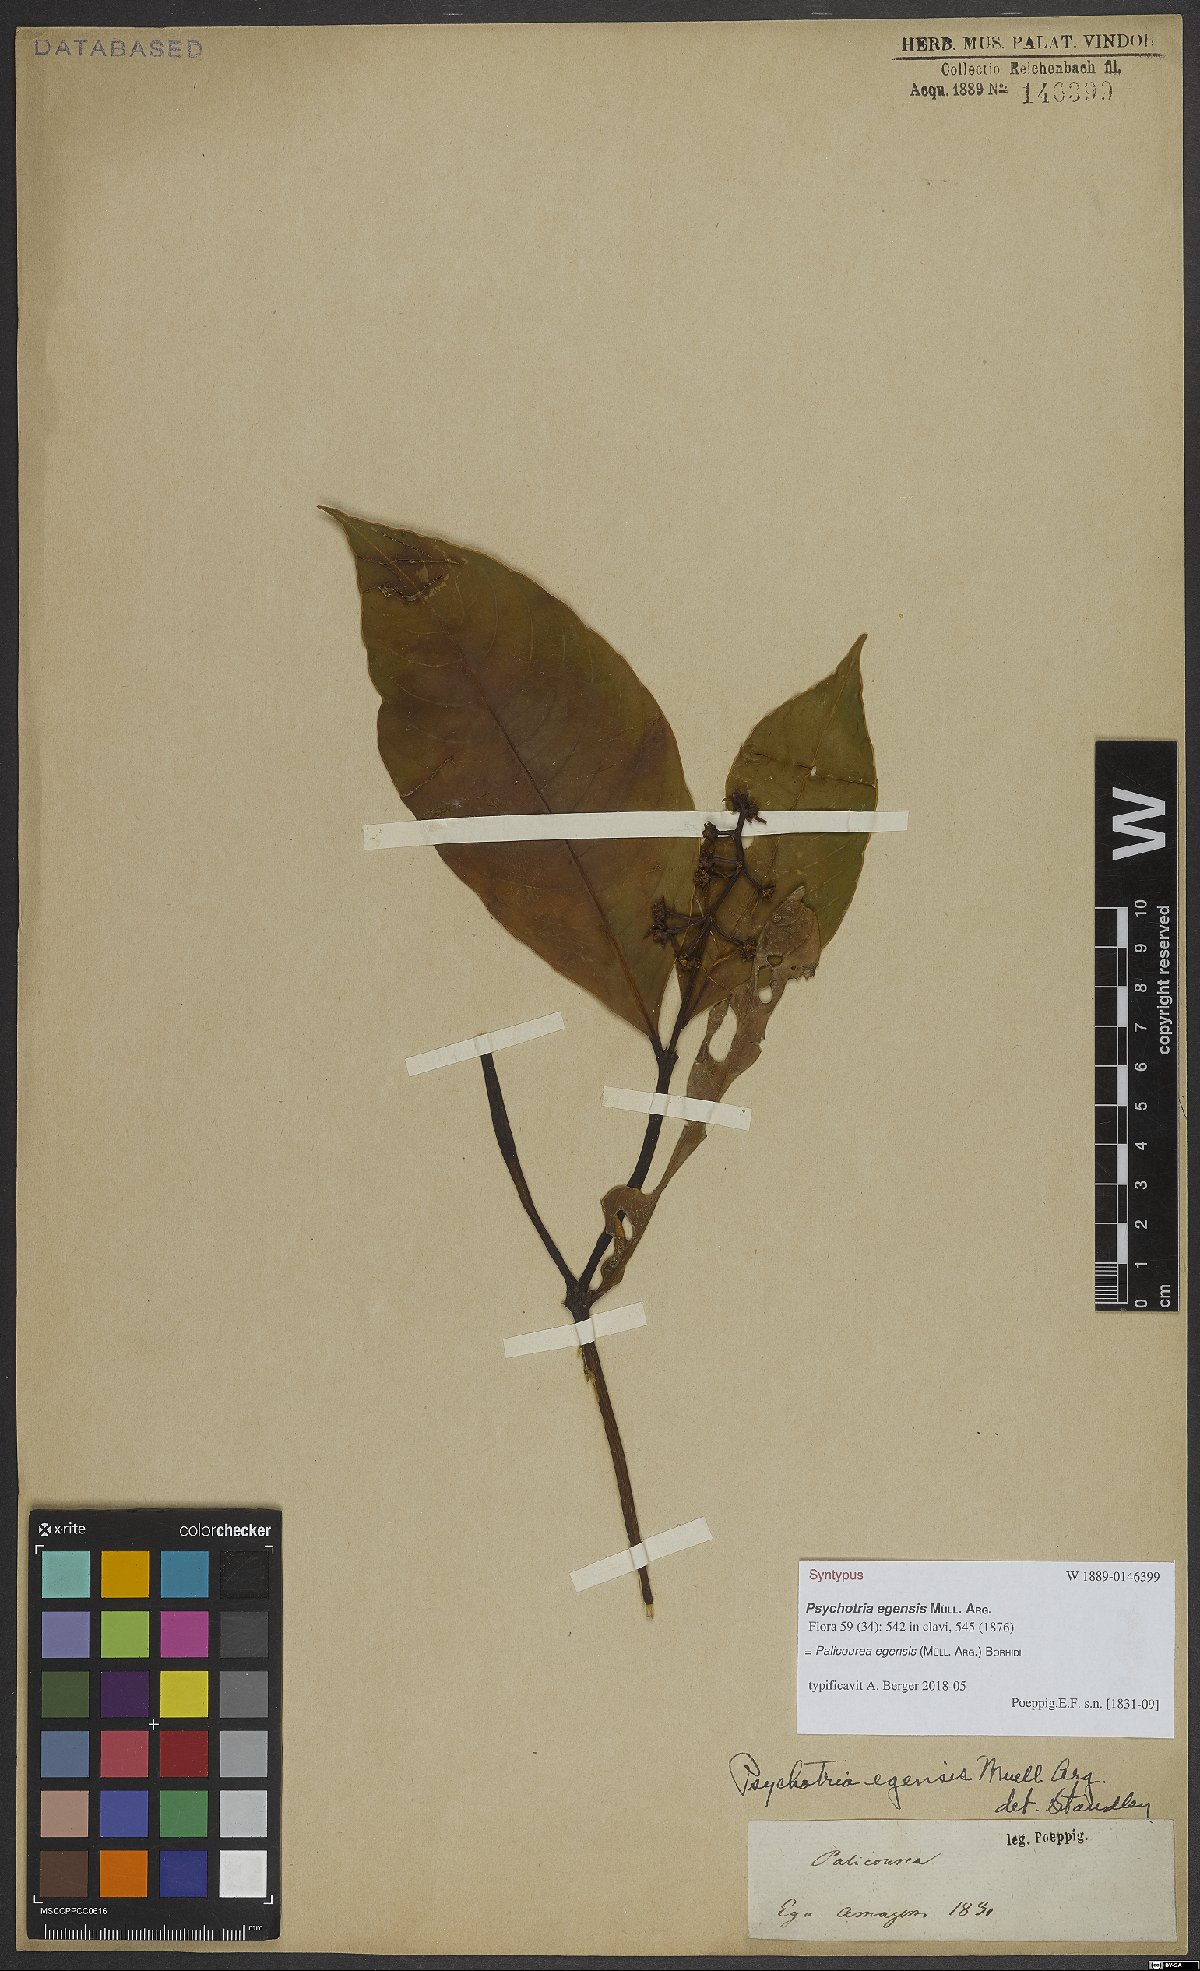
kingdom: Plantae
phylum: Tracheophyta
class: Magnoliopsida
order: Gentianales
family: Rubiaceae
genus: Palicourea
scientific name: Palicourea egensis
